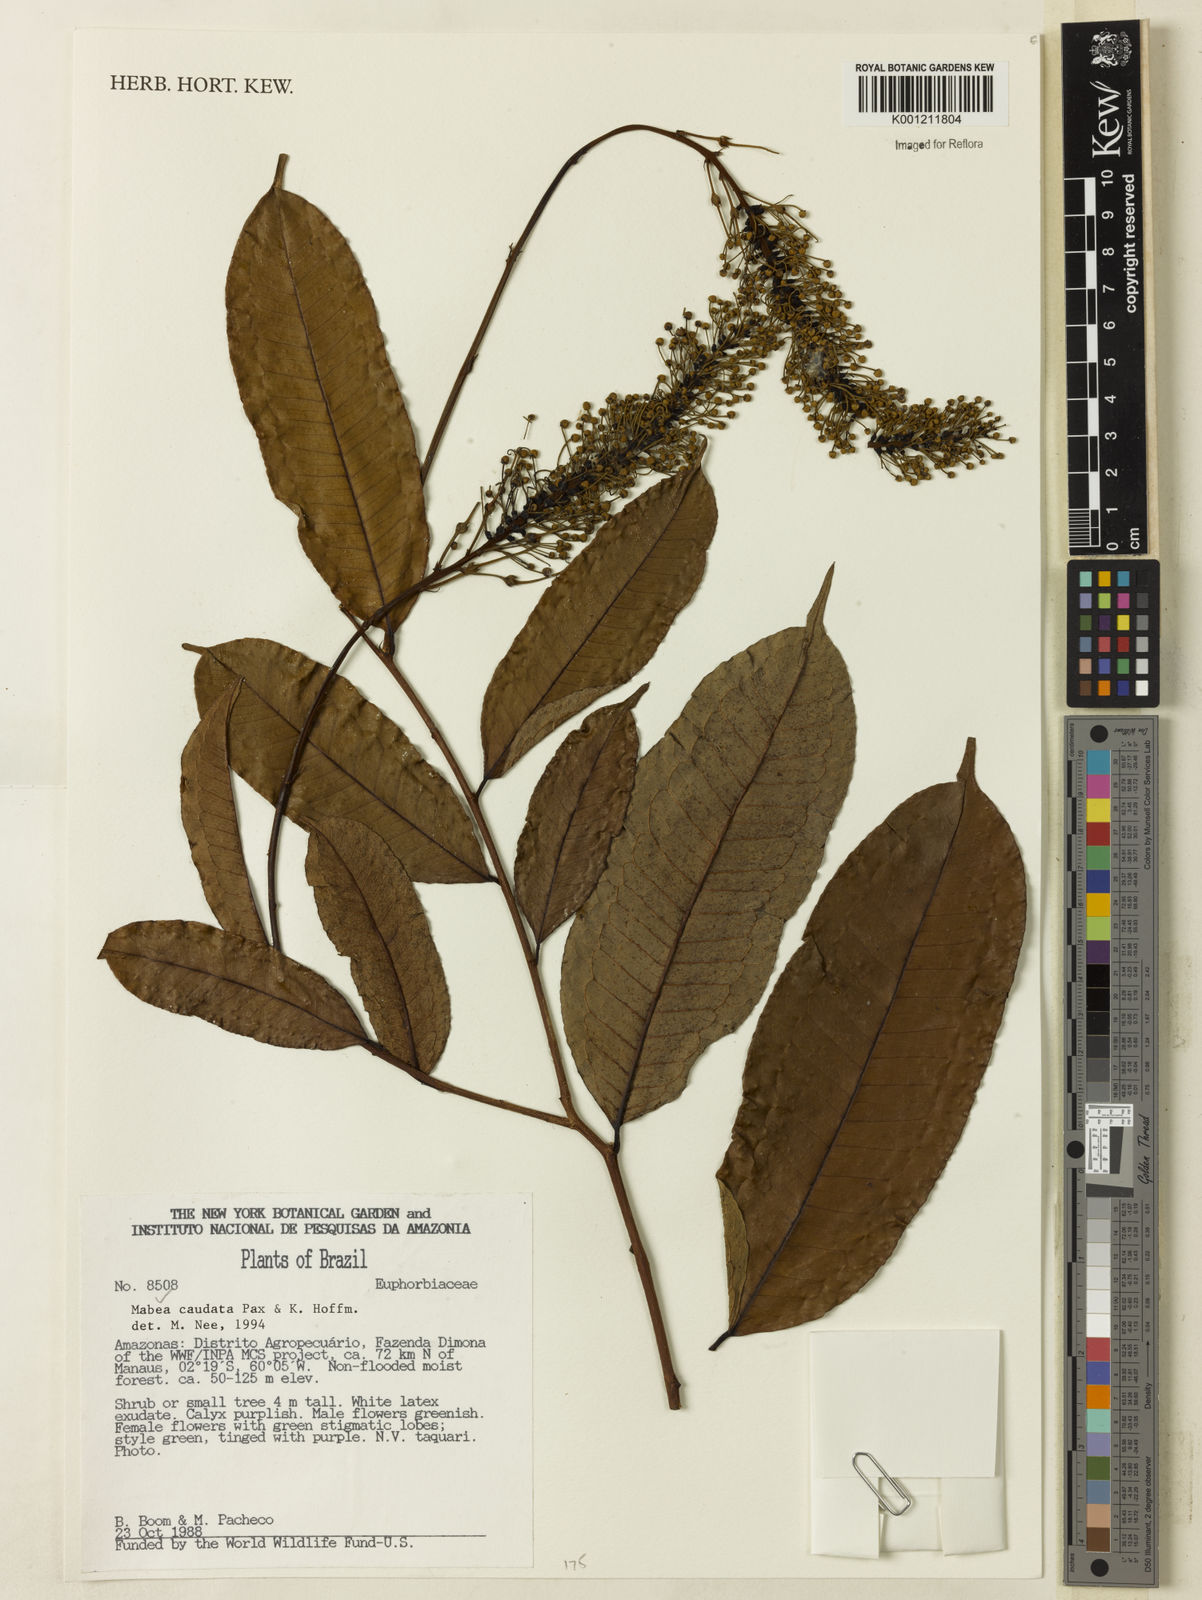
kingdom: Plantae
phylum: Tracheophyta
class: Magnoliopsida
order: Malpighiales
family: Euphorbiaceae
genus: Mabea
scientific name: Mabea caudata
